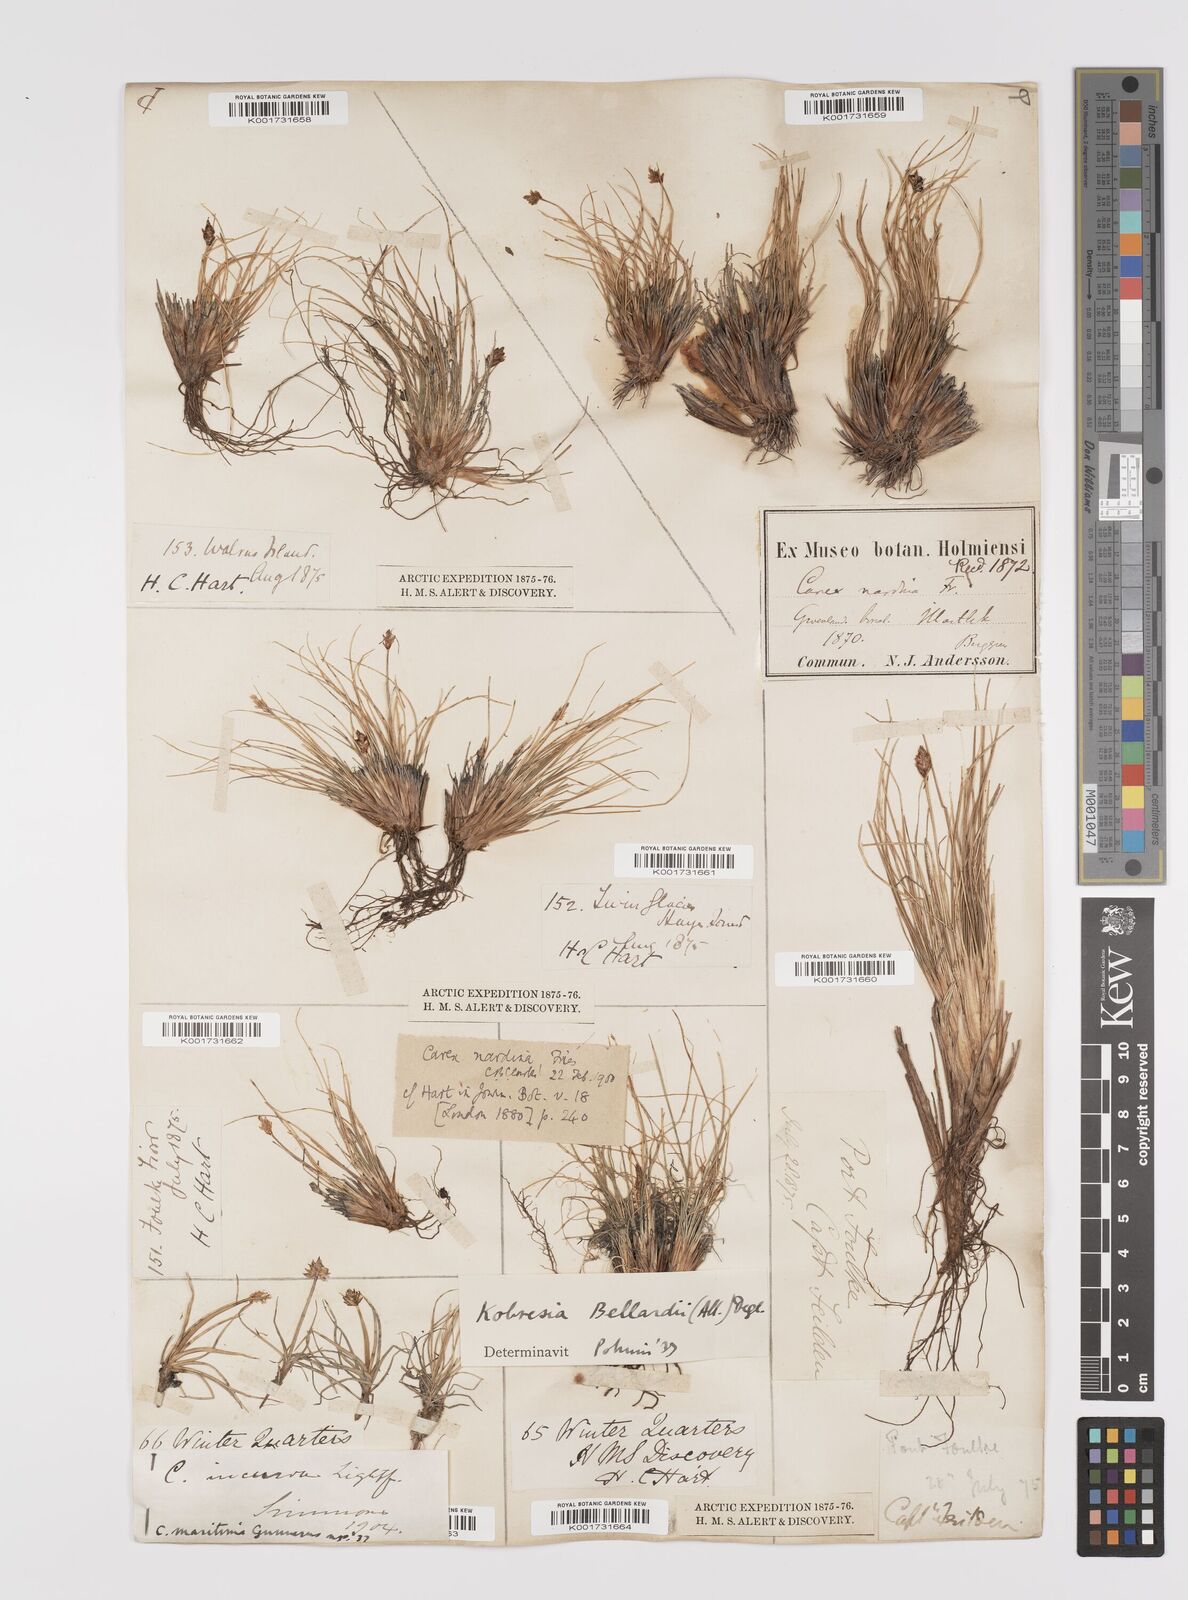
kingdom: Plantae
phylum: Tracheophyta
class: Liliopsida
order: Poales
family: Cyperaceae
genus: Carex
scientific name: Carex nardina
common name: Nard sedge
